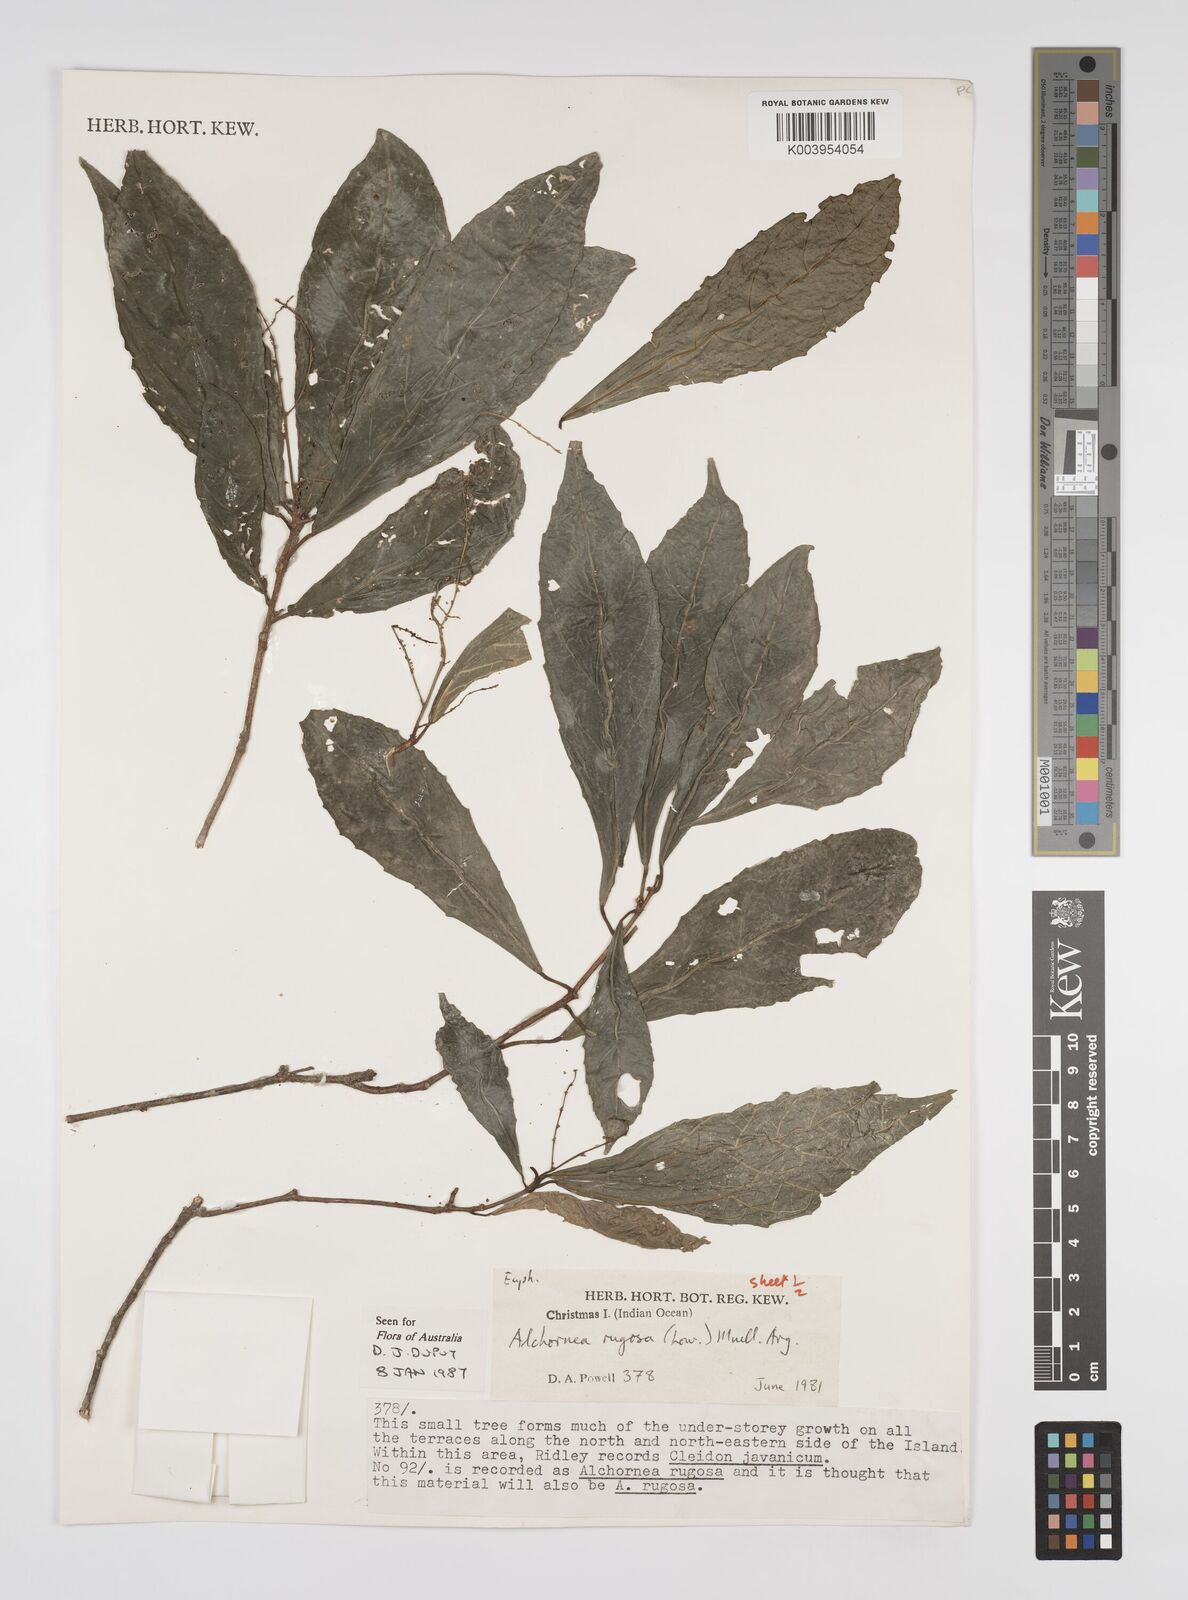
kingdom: Plantae
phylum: Tracheophyta
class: Magnoliopsida
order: Malpighiales
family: Euphorbiaceae
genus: Alchornea
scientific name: Alchornea rugosa
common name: Alchorntree
